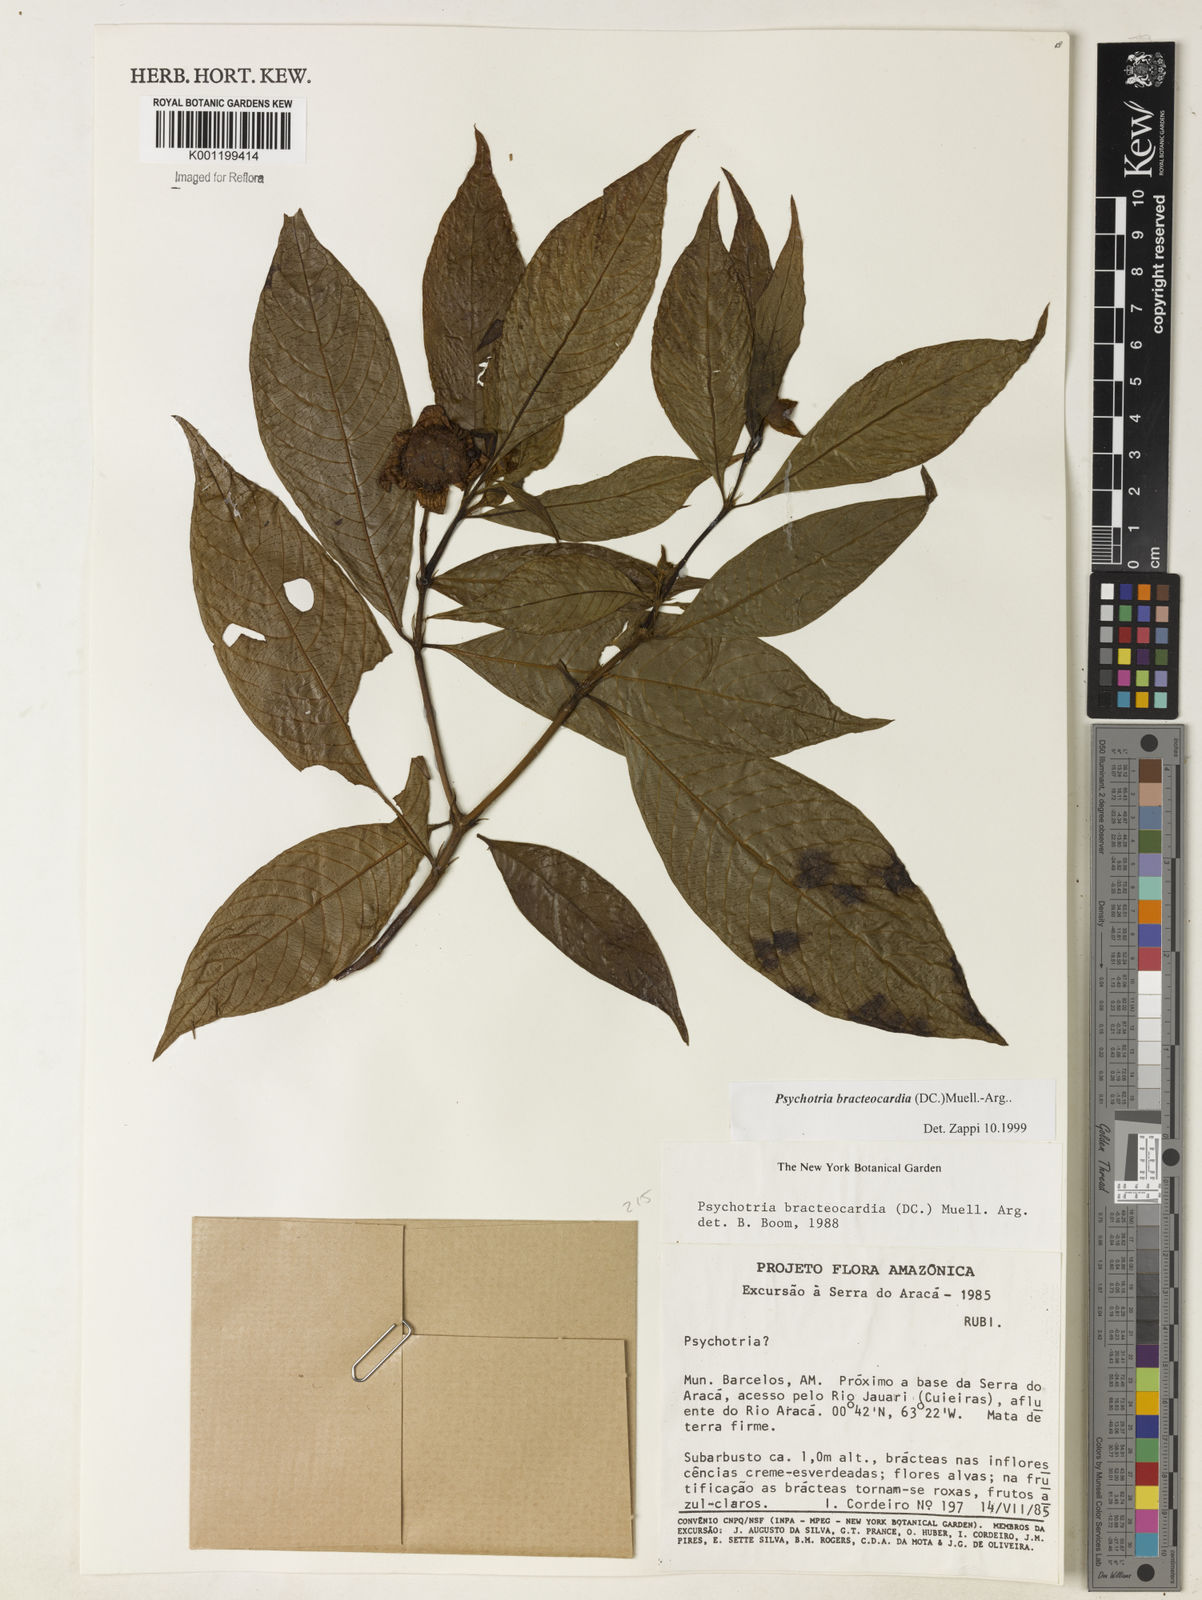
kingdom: Plantae
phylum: Tracheophyta
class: Magnoliopsida
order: Gentianales
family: Rubiaceae
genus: Psychotria
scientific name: Psychotria
